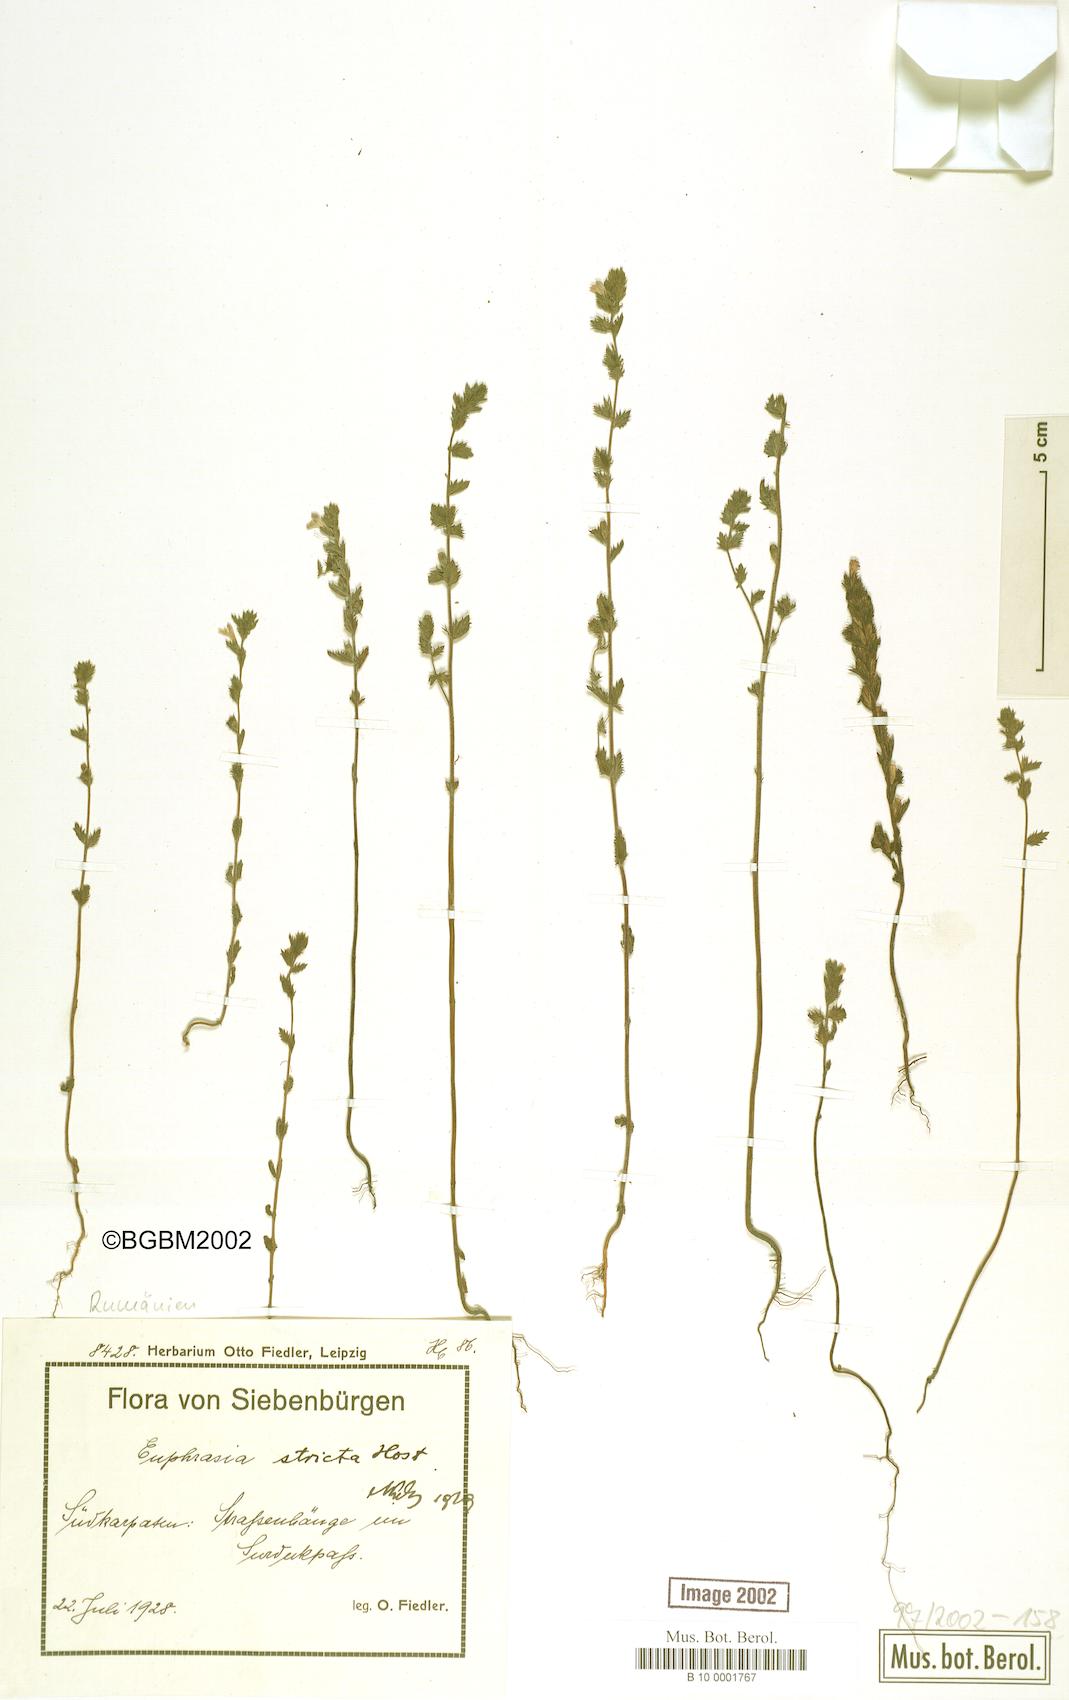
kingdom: Plantae
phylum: Tracheophyta
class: Magnoliopsida
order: Lamiales
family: Orobanchaceae
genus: Euphrasia
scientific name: Euphrasia stricta
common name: Drug eyebright
